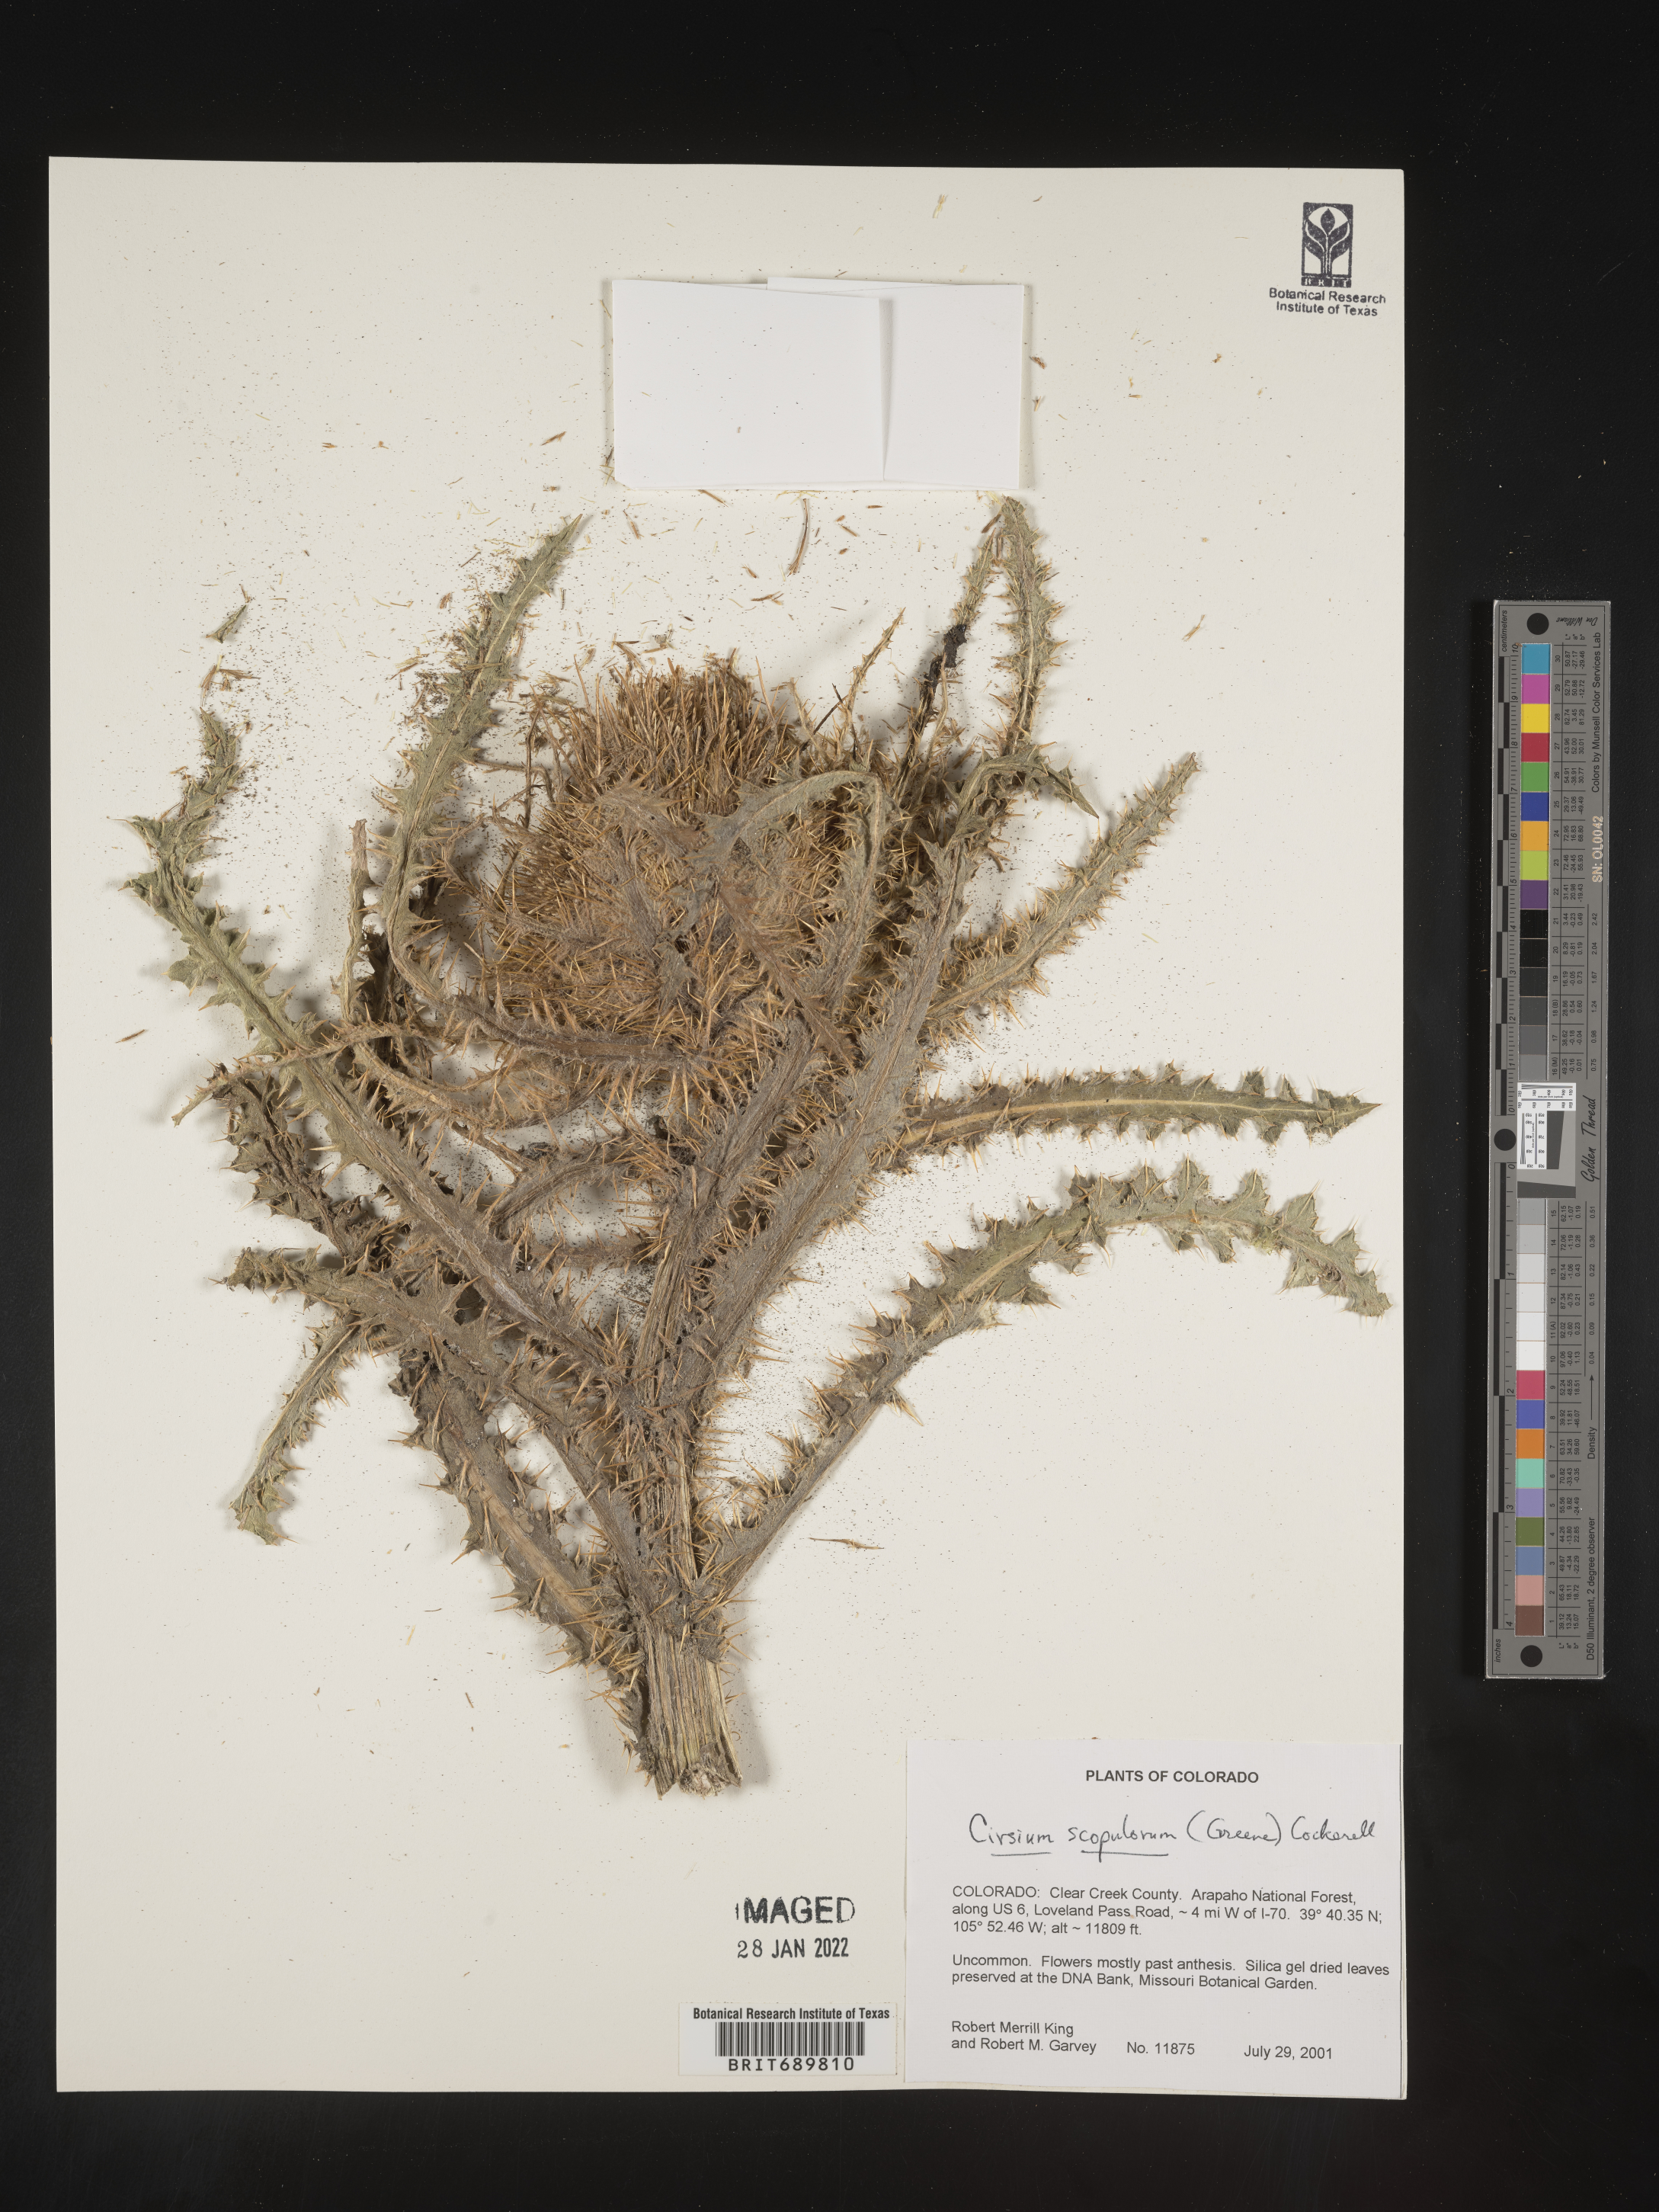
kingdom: Plantae
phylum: Tracheophyta
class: Magnoliopsida
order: Asterales
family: Asteraceae
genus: Cirsium
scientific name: Cirsium scopulorum
